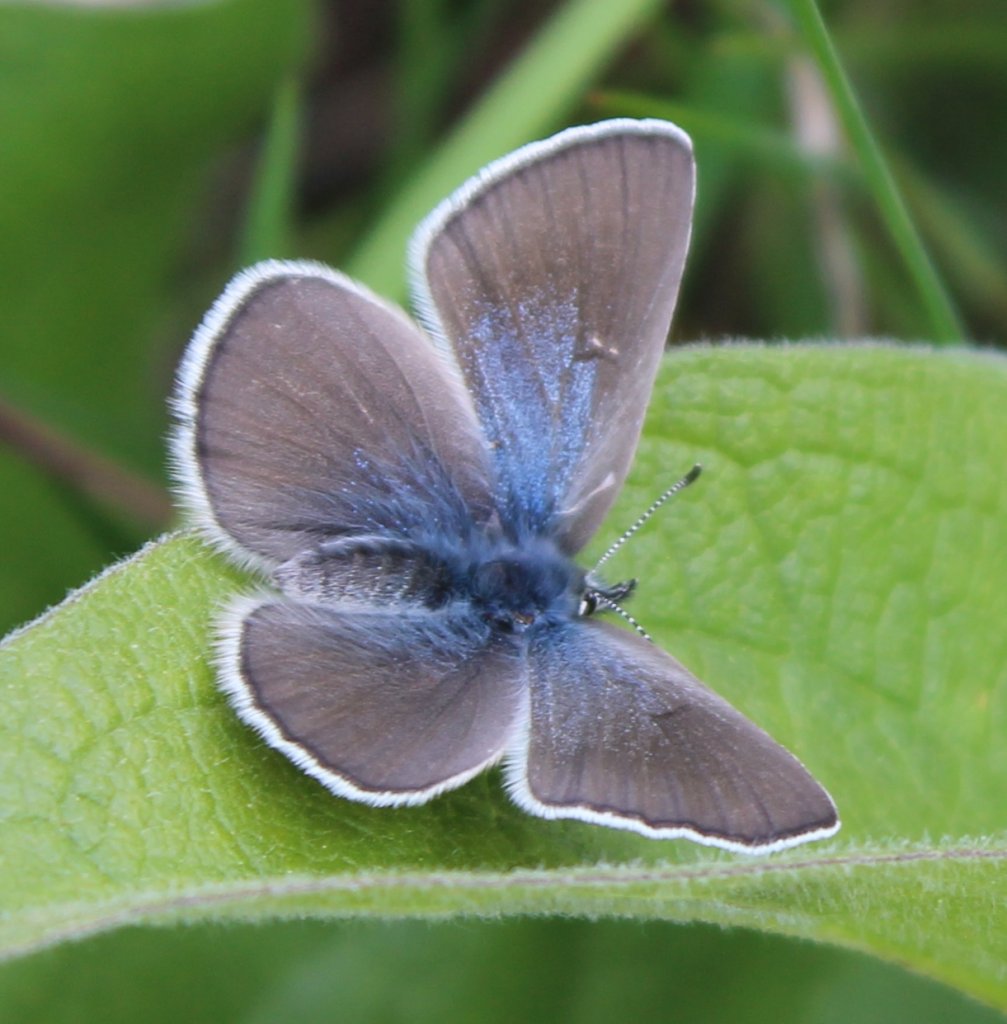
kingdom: Animalia
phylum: Arthropoda
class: Insecta
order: Lepidoptera
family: Lycaenidae
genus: Glaucopsyche
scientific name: Glaucopsyche lygdamus
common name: Silvery Blue
